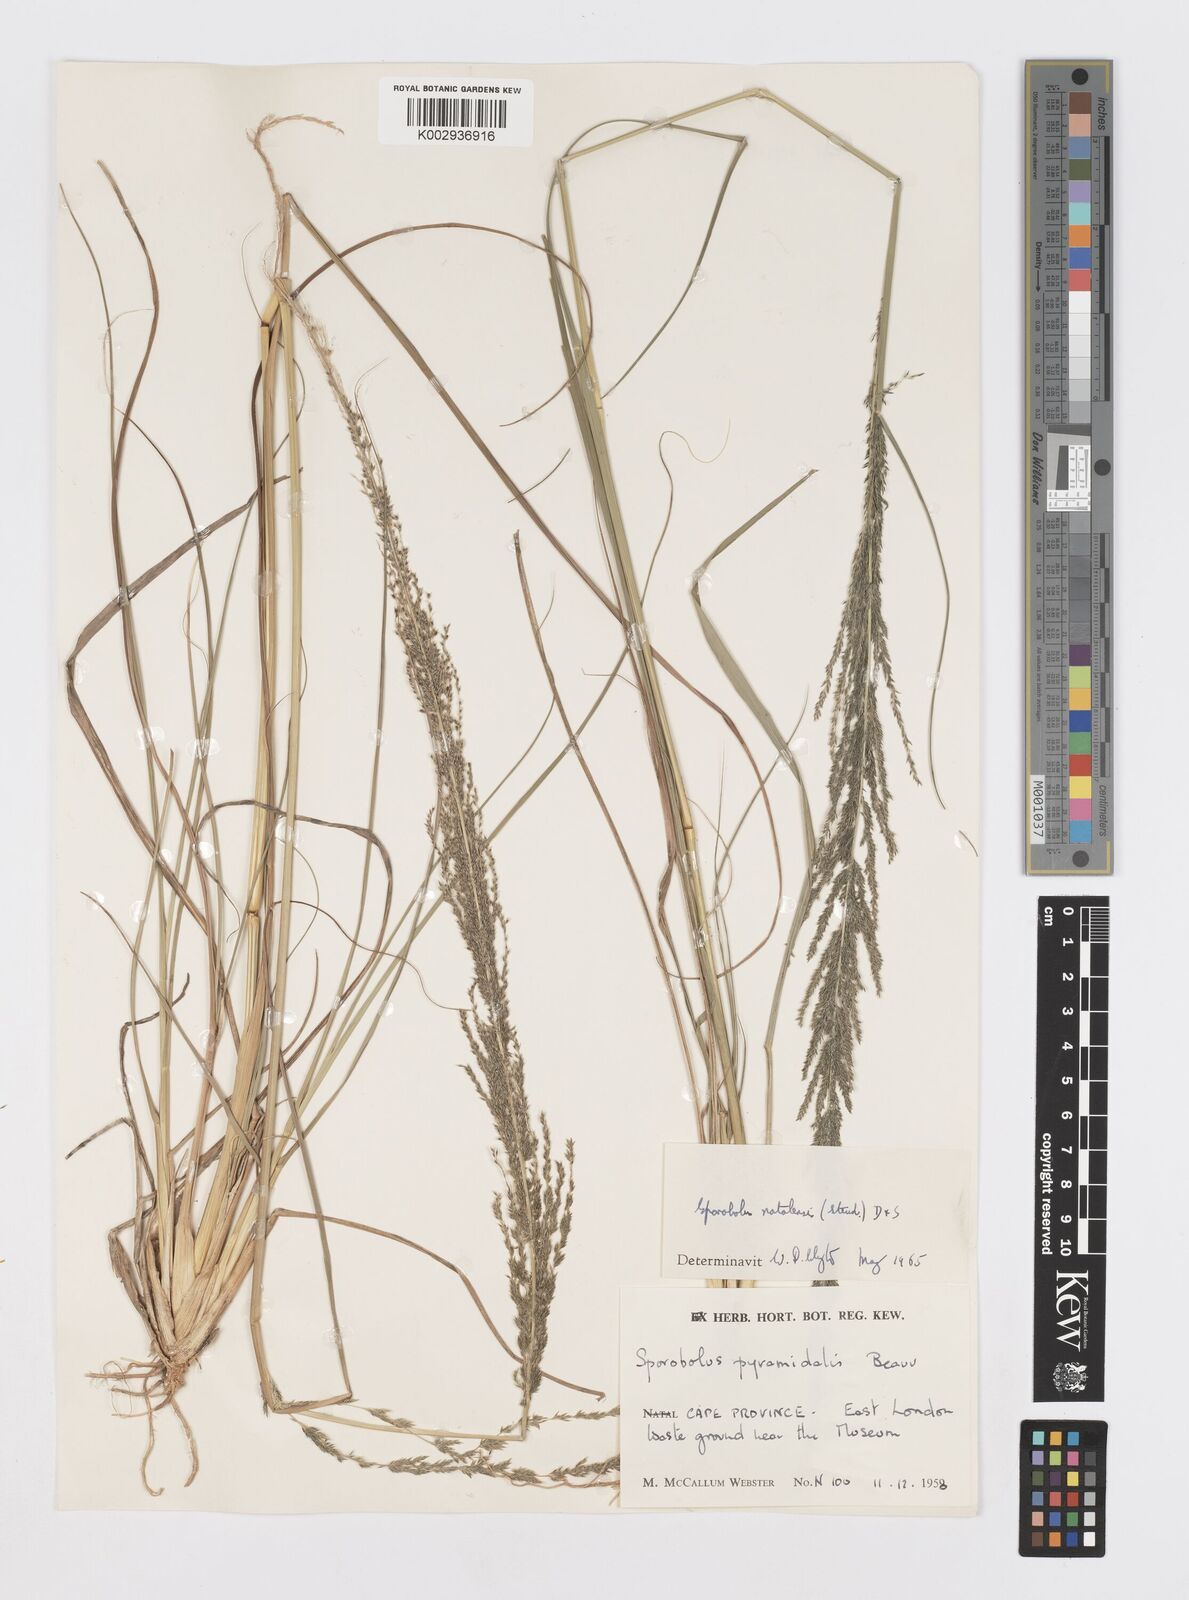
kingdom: Plantae
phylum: Tracheophyta
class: Liliopsida
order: Poales
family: Poaceae
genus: Sporobolus
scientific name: Sporobolus natalensis
